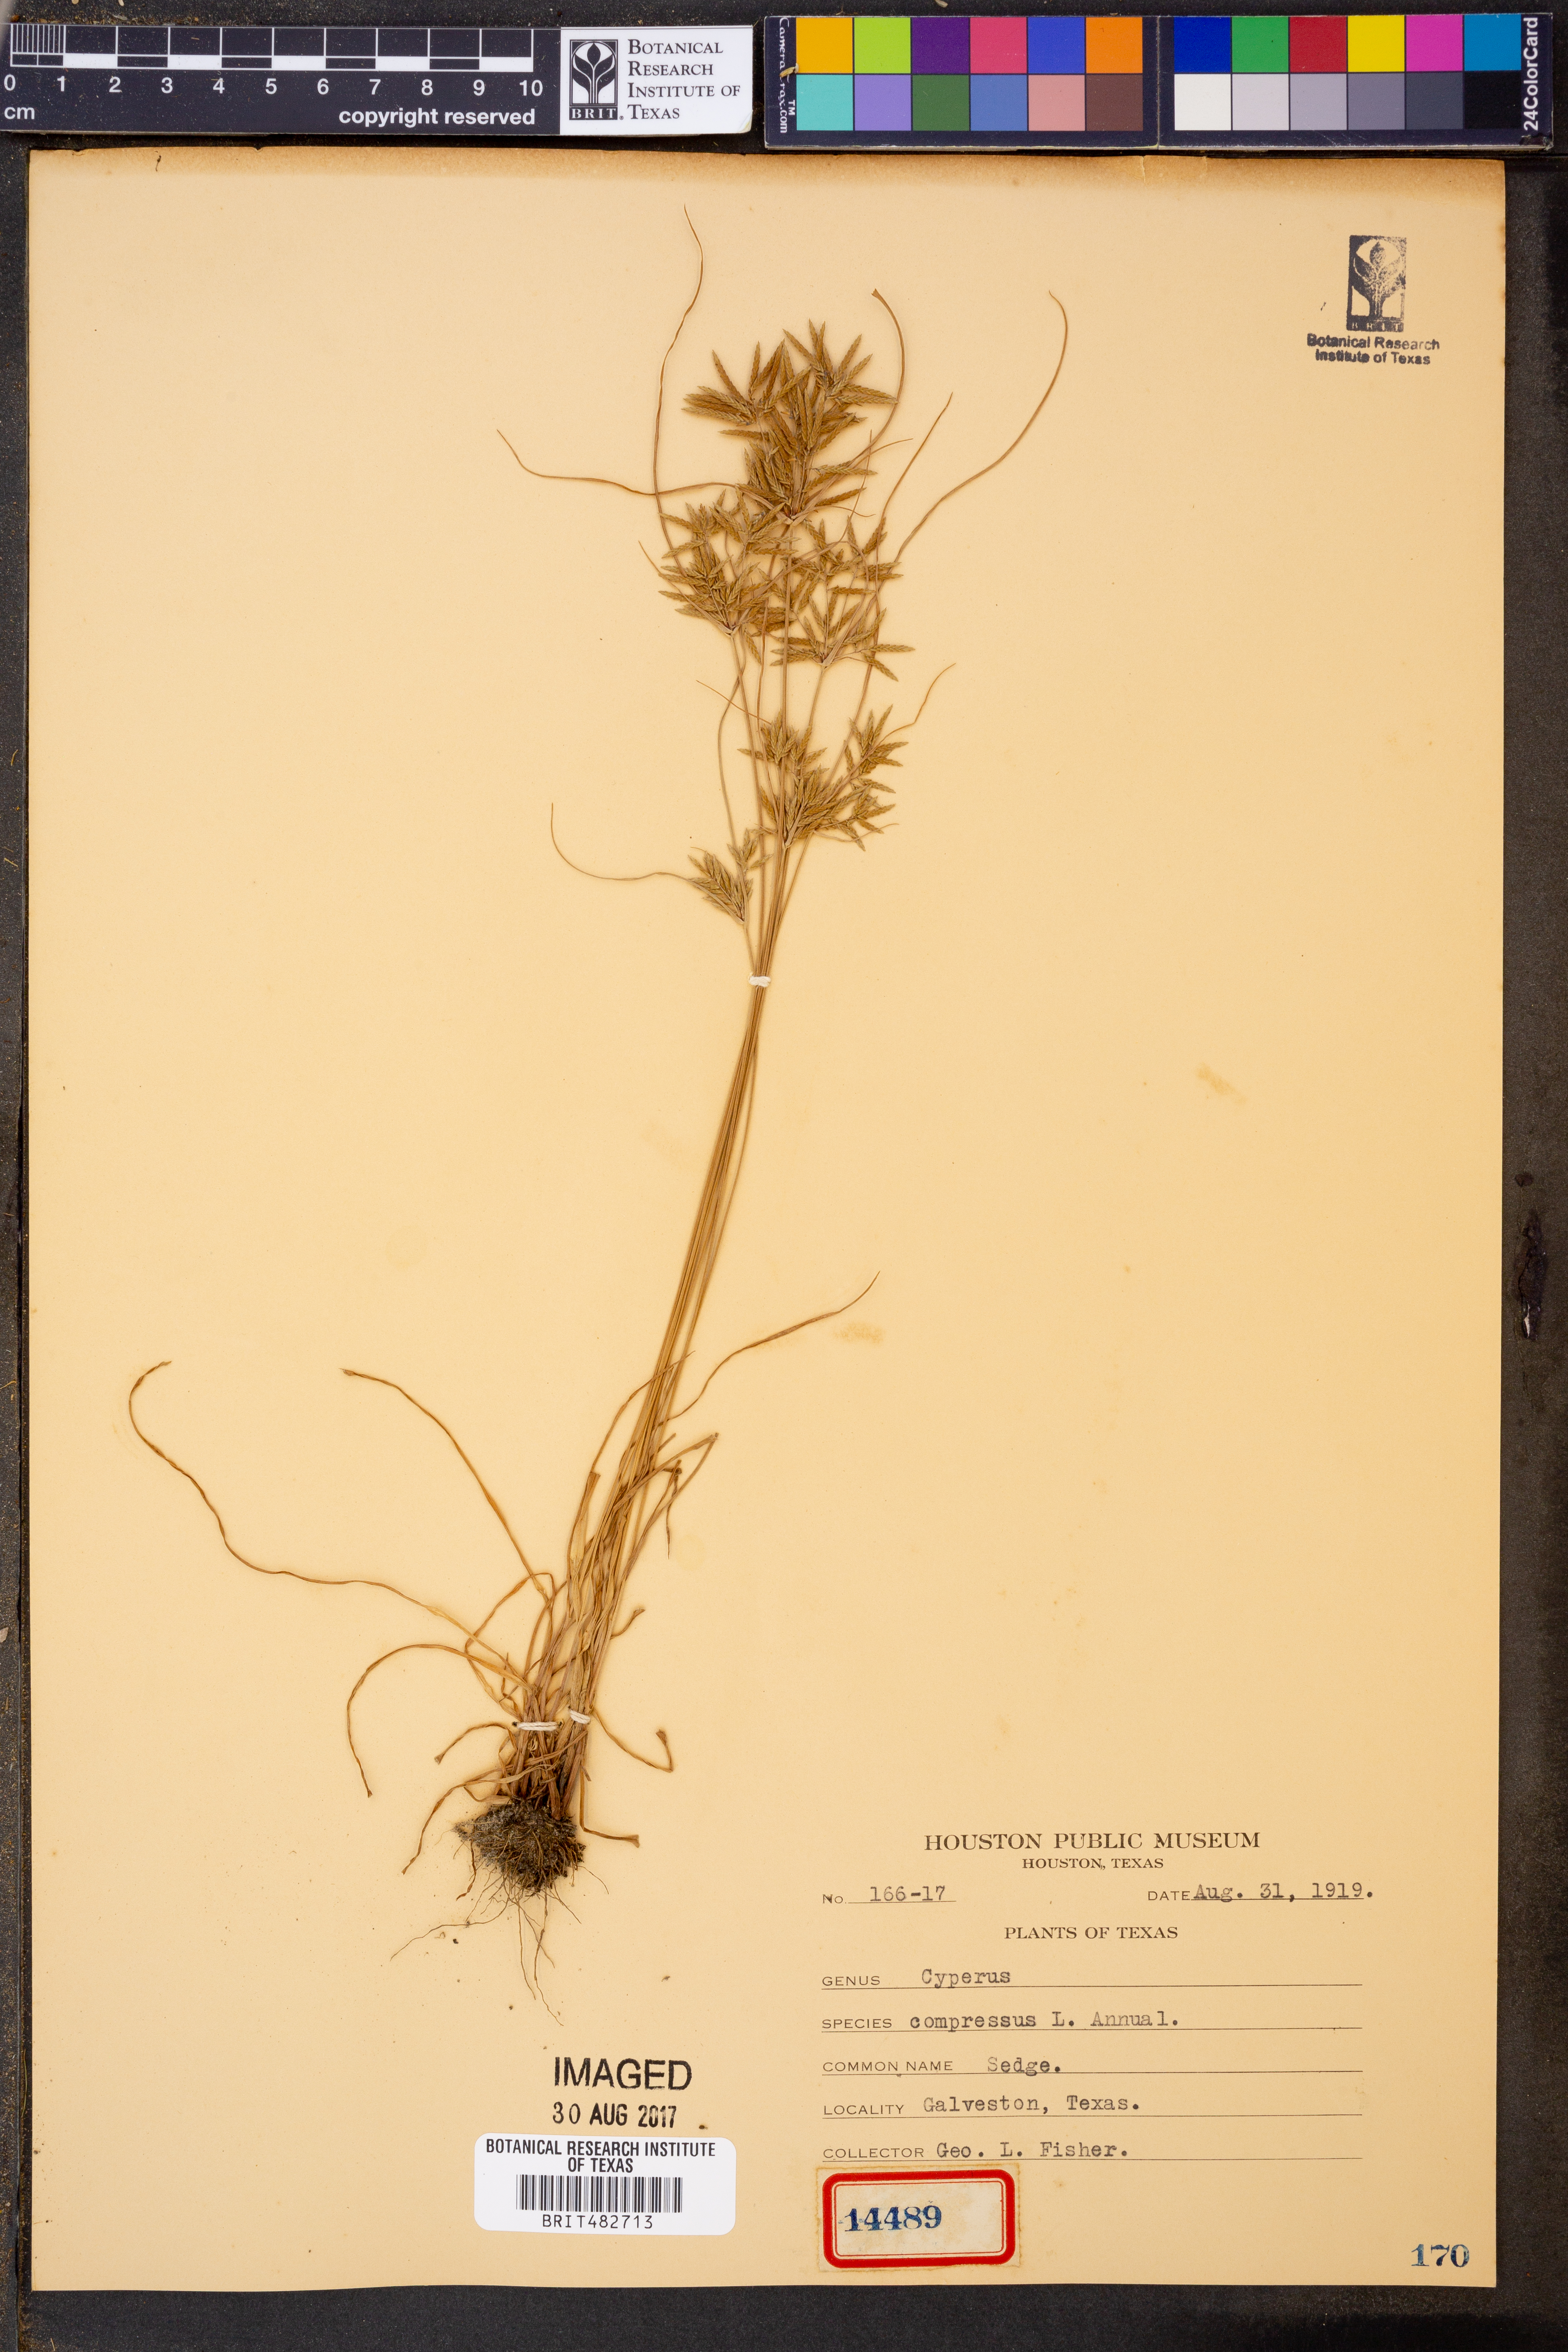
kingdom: Plantae
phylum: Tracheophyta
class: Liliopsida
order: Poales
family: Cyperaceae
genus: Cyperus
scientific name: Cyperus compressus
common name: Poorland flatsedge
